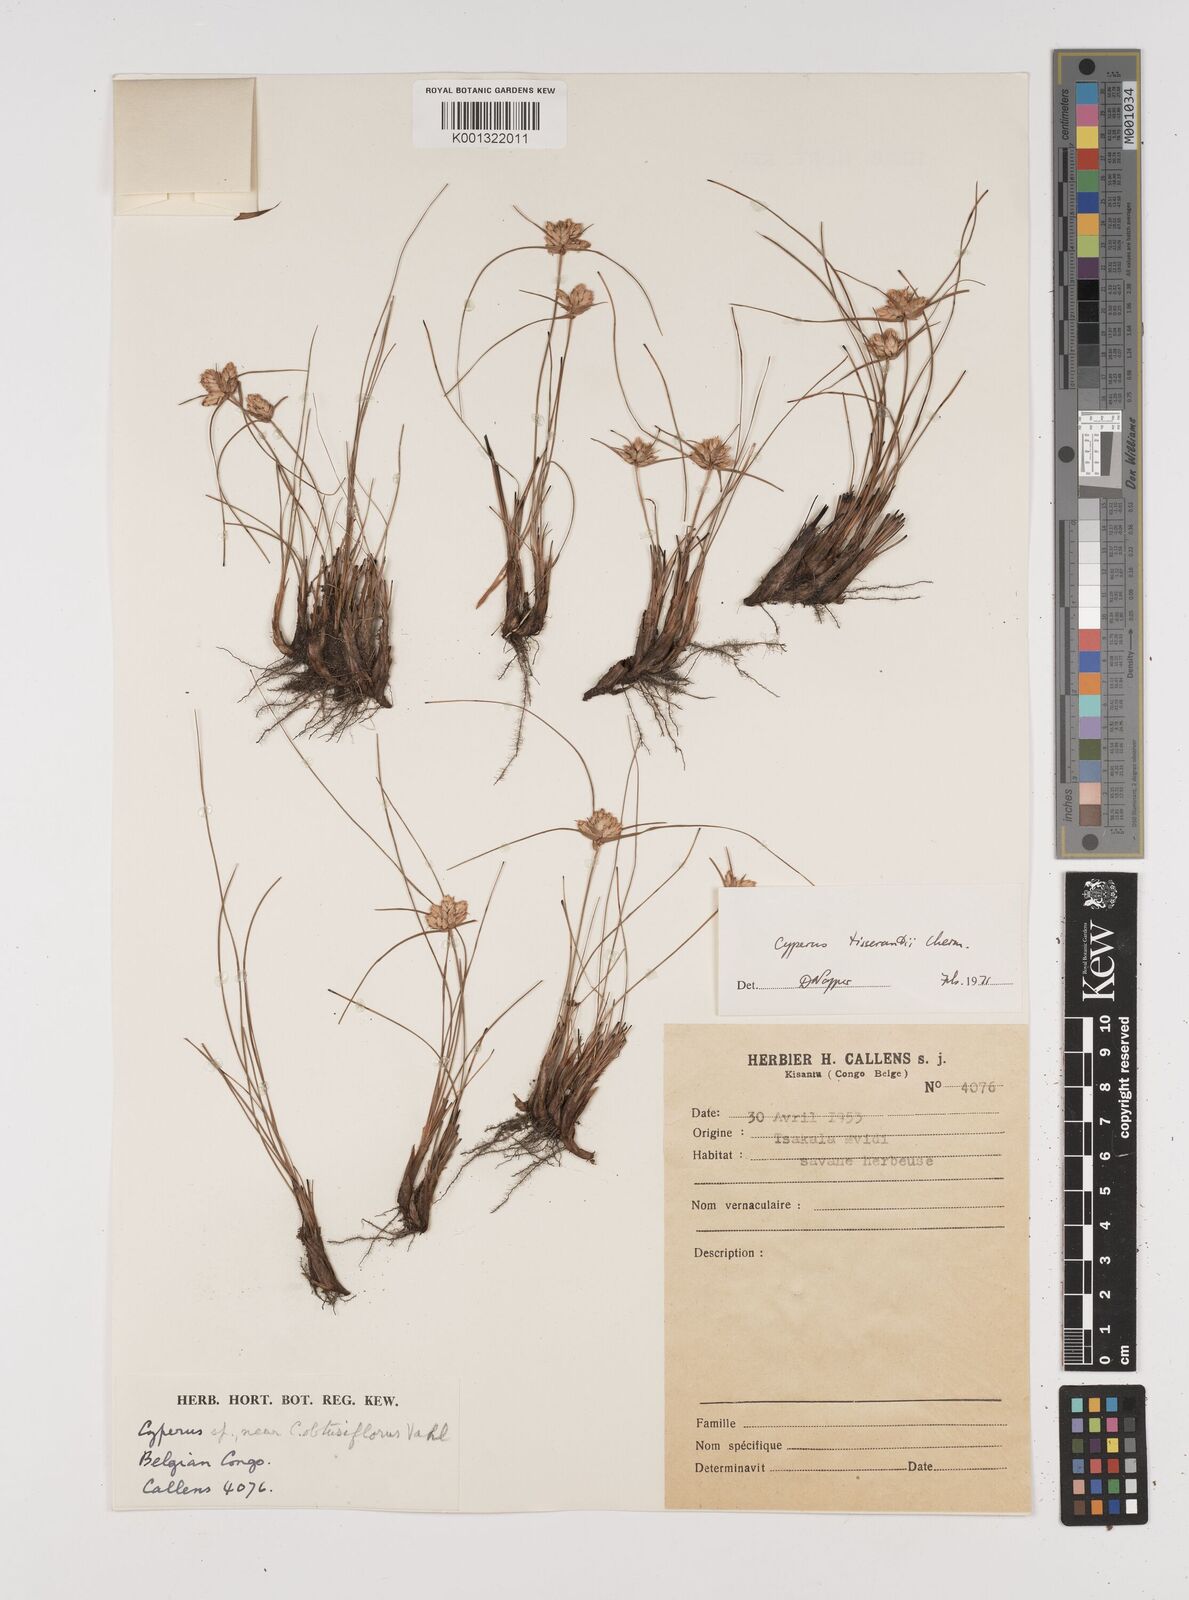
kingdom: Plantae
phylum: Tracheophyta
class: Liliopsida
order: Poales
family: Cyperaceae
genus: Cyperus
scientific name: Cyperus niveus
